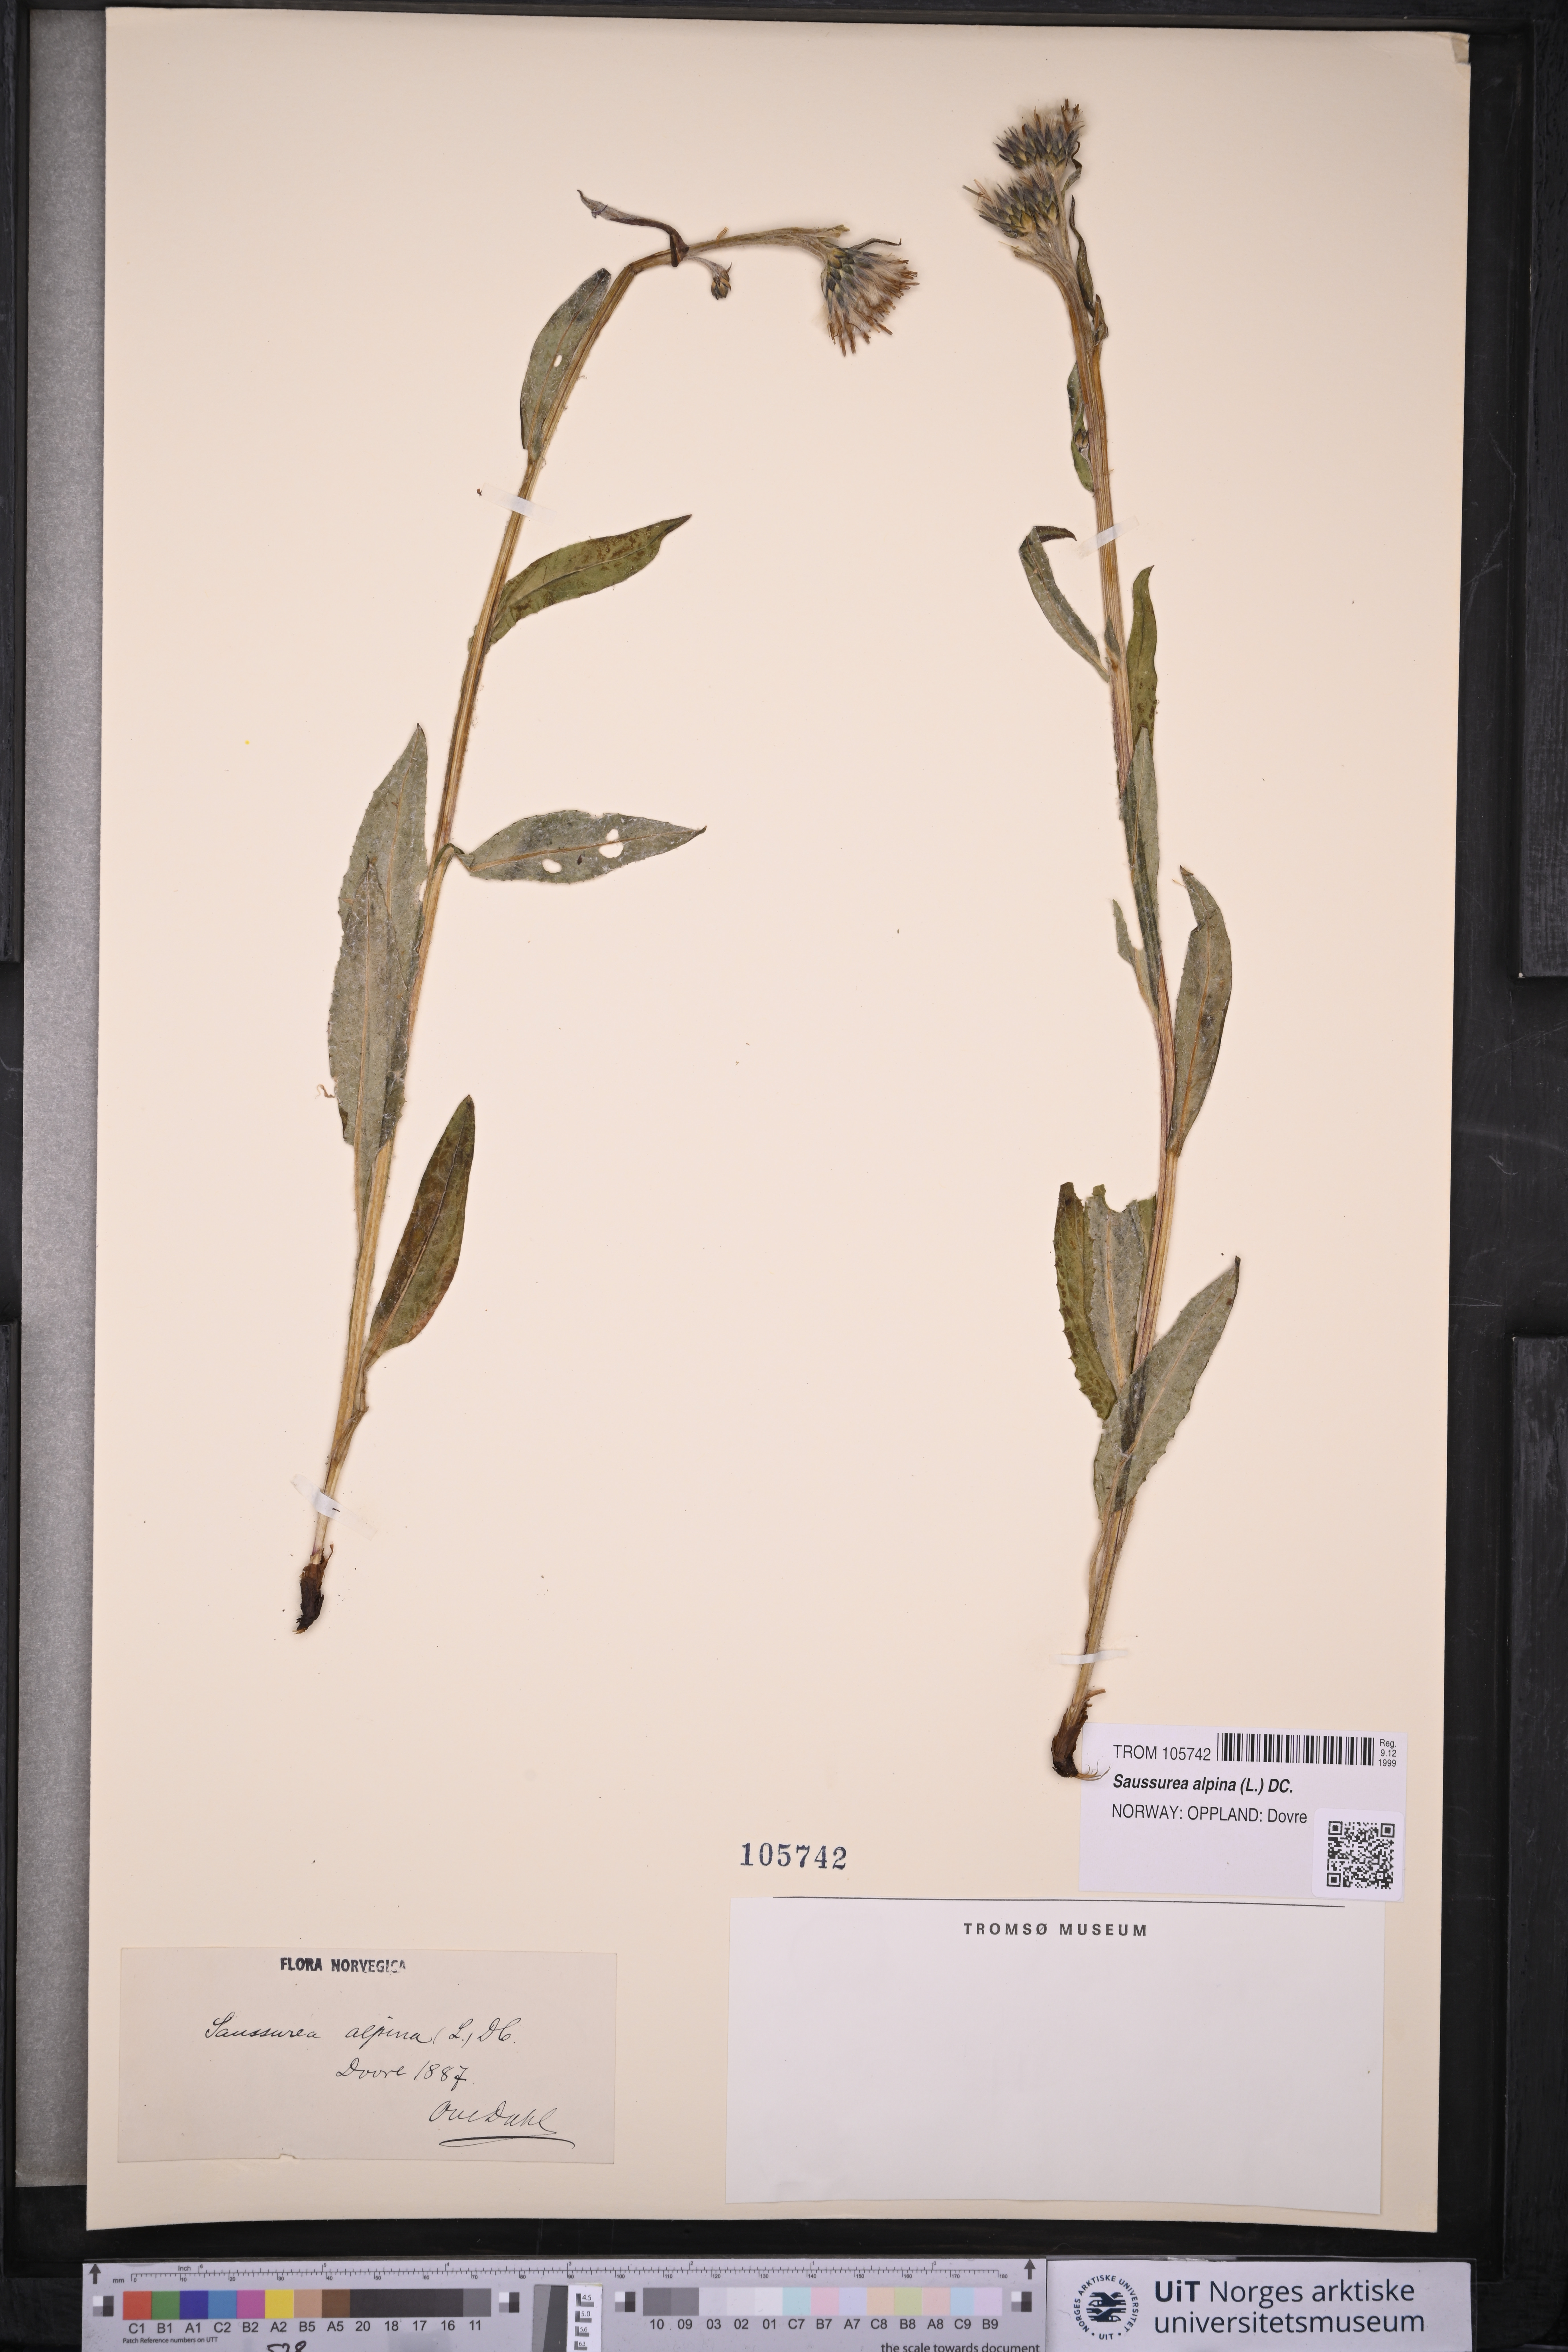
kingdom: Plantae
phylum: Tracheophyta
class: Magnoliopsida
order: Asterales
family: Asteraceae
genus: Saussurea
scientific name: Saussurea alpina
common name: Alpine saw-wort
